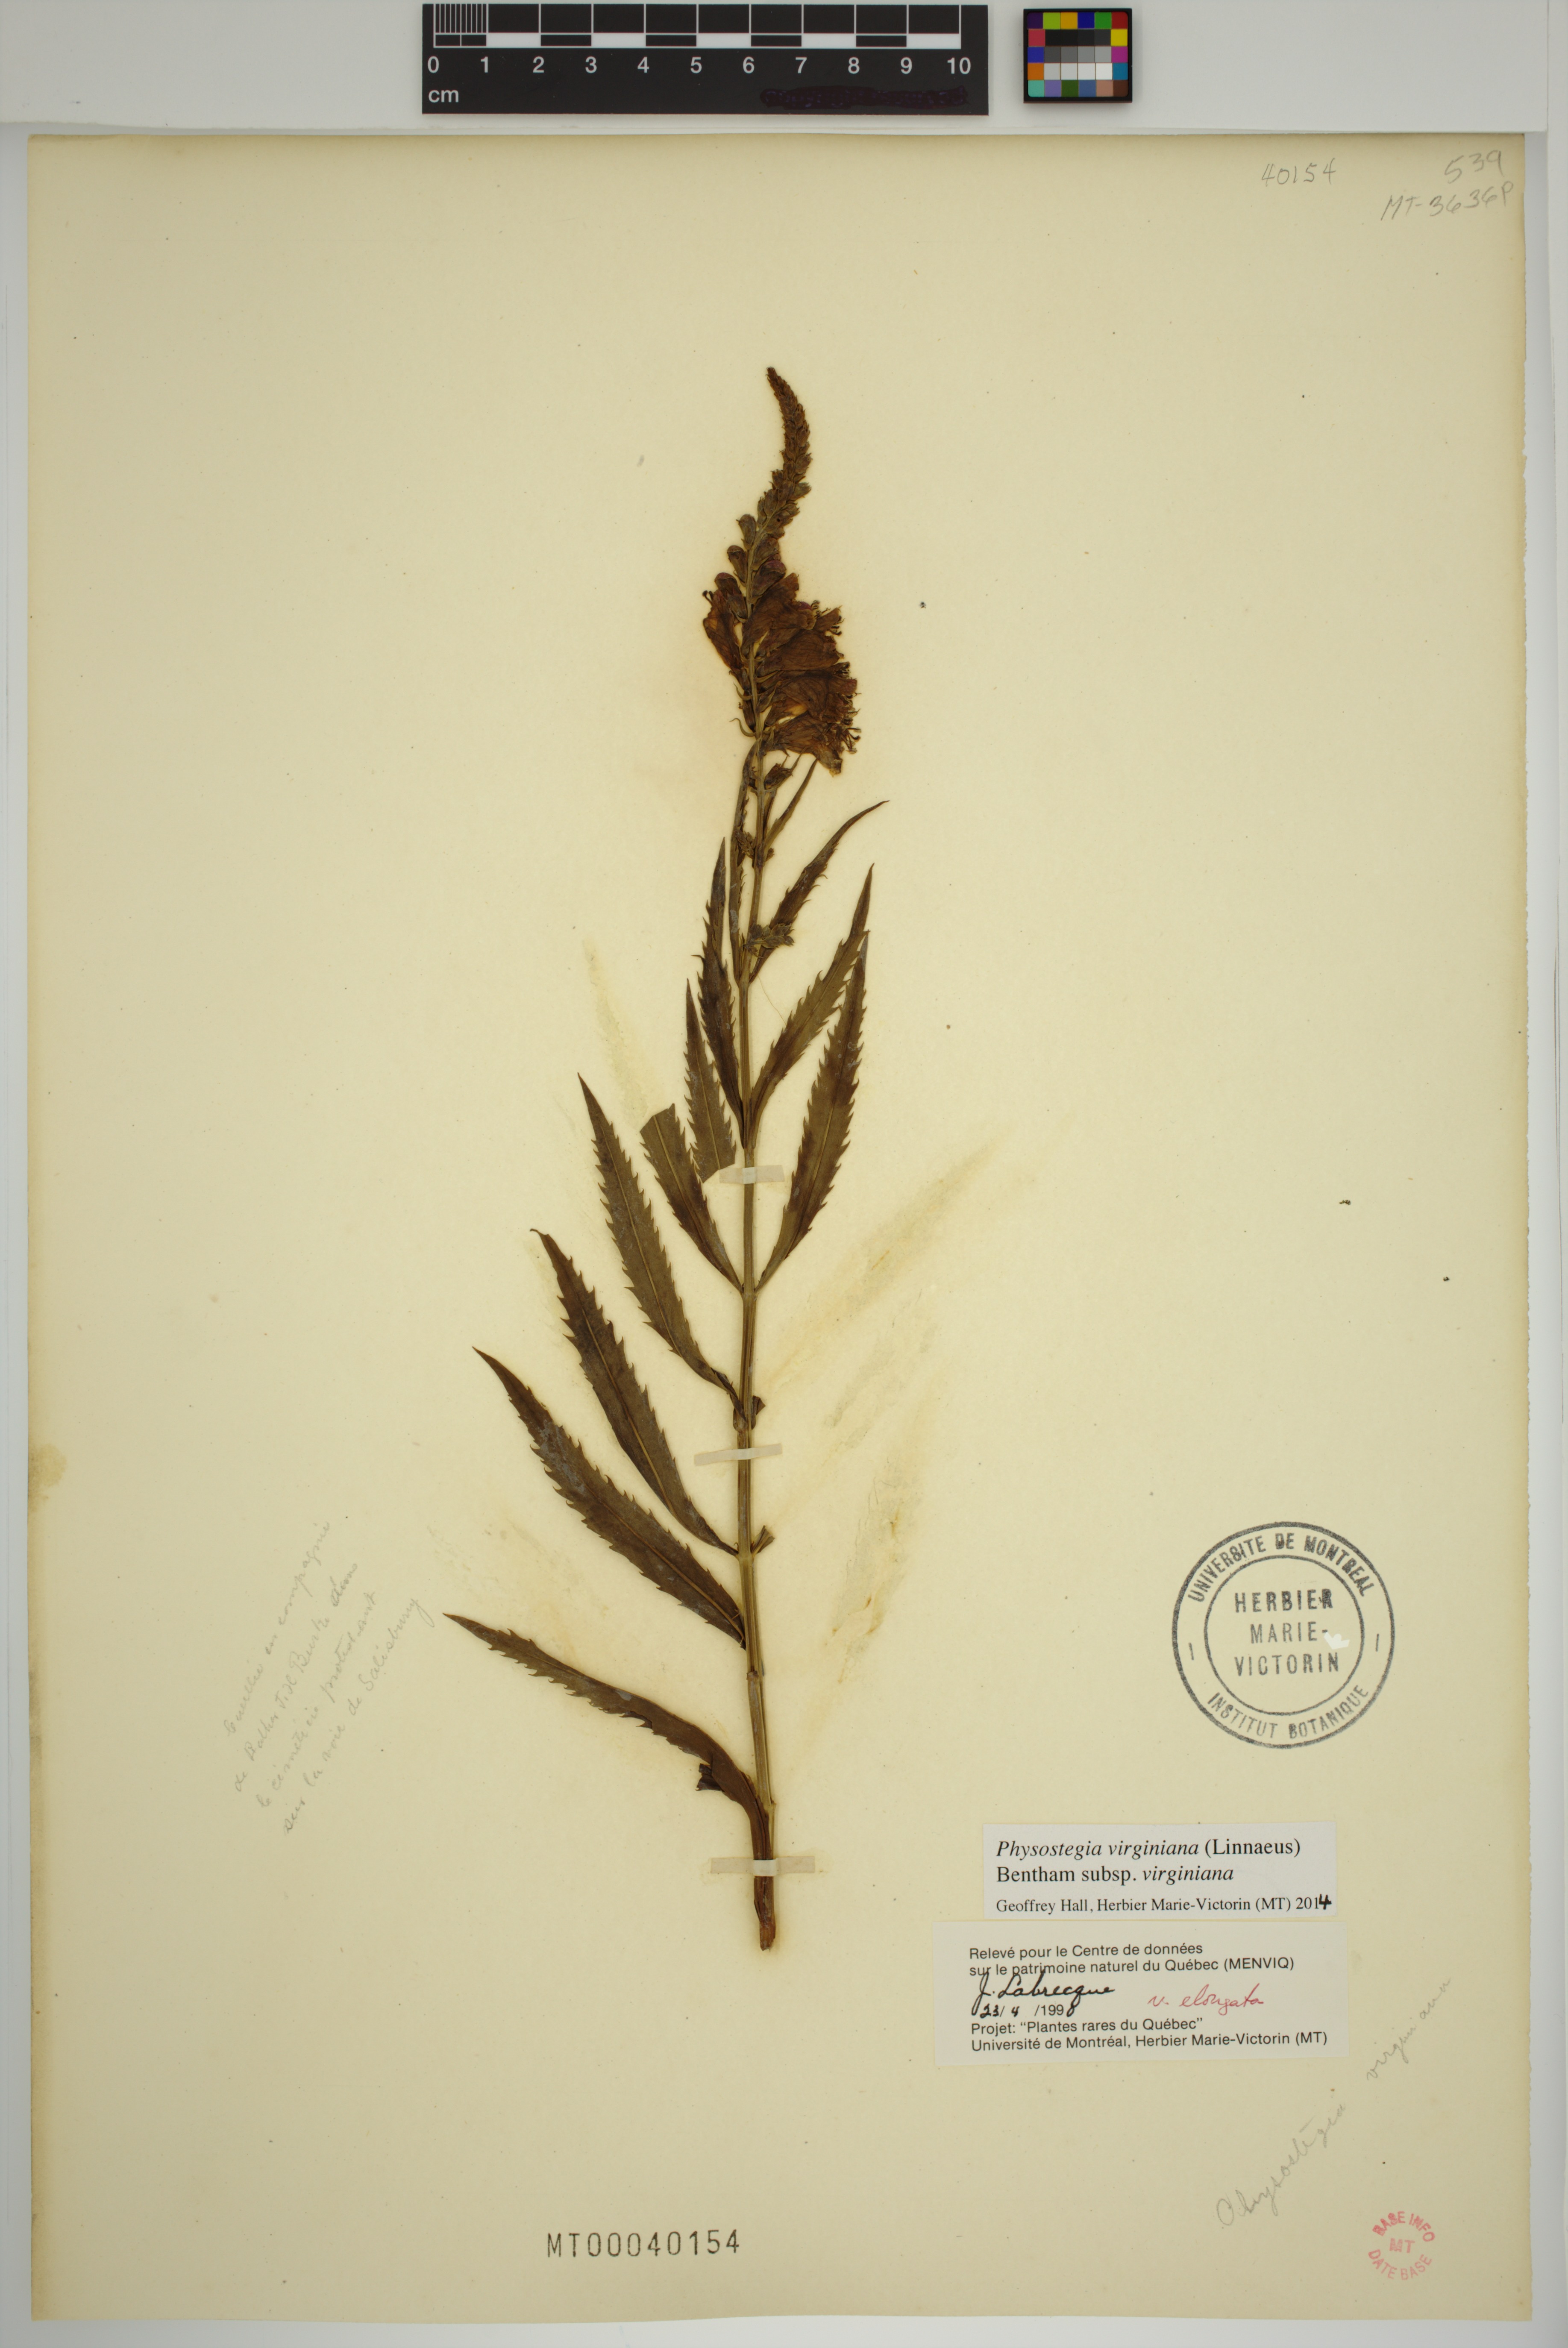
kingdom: Plantae
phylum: Tracheophyta
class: Magnoliopsida
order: Lamiales
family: Lamiaceae
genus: Physostegia
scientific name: Physostegia virginiana
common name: Obedient-plant
